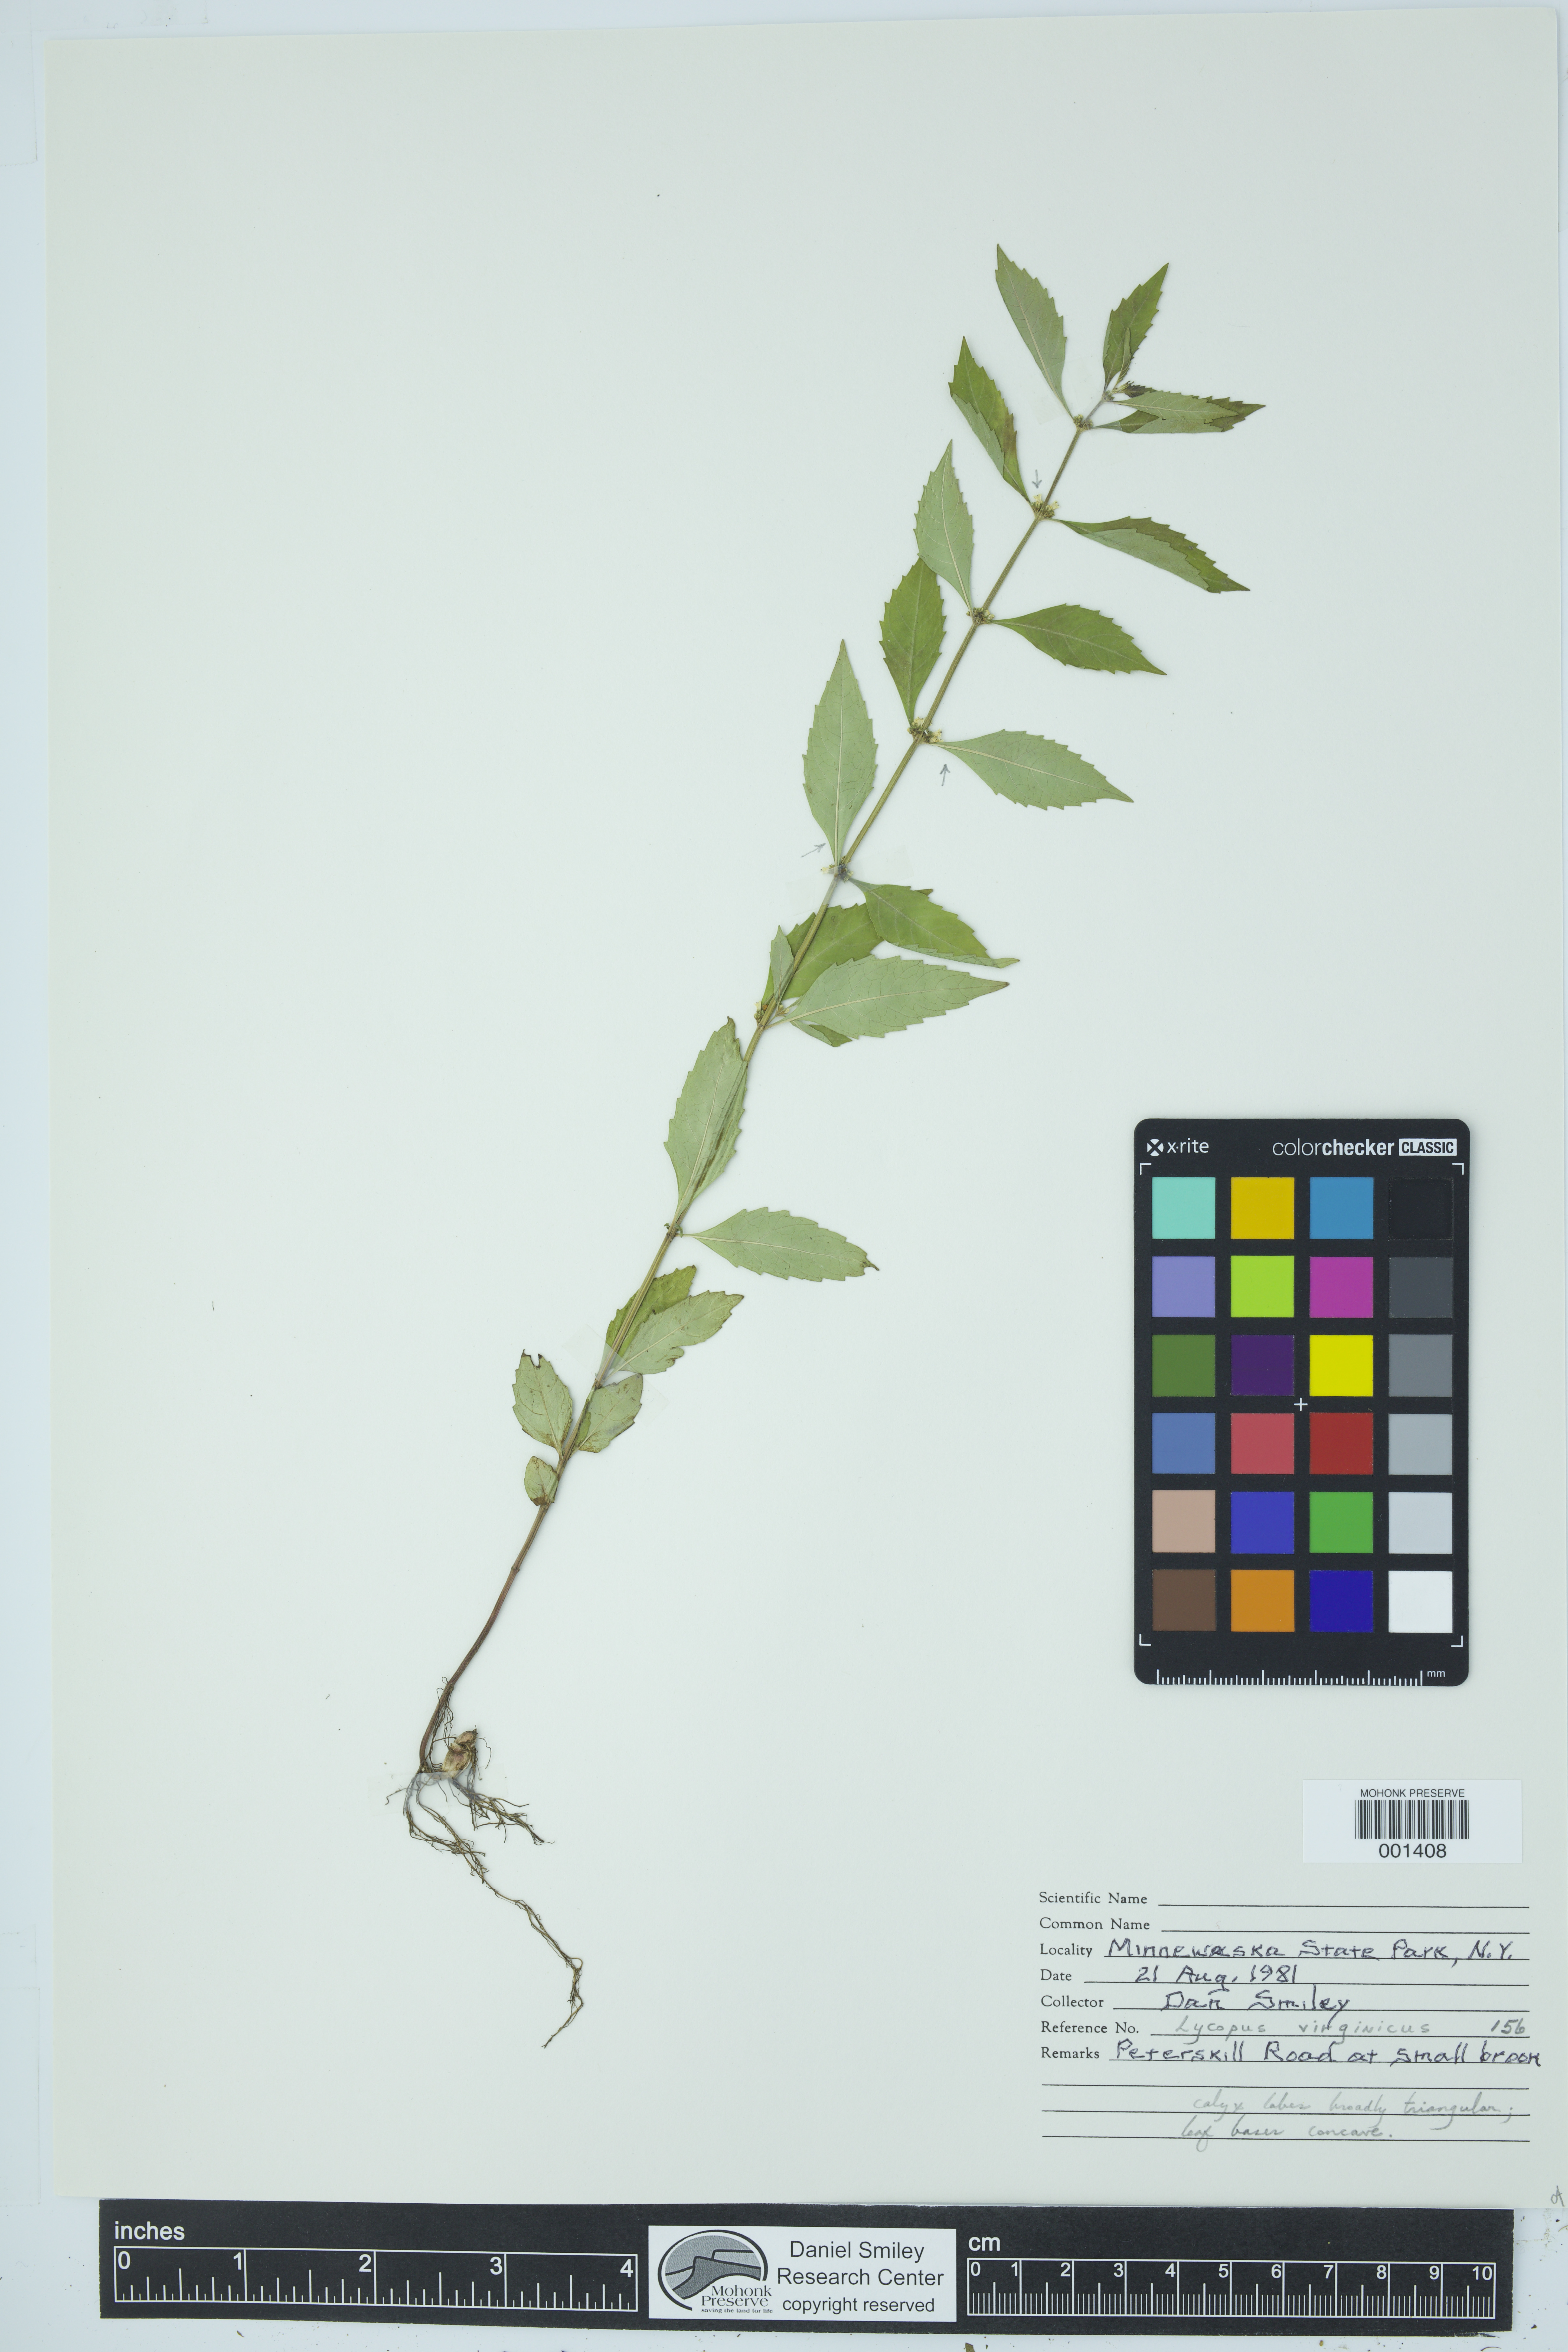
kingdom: Plantae
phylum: Tracheophyta
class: Magnoliopsida
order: Lamiales
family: Lamiaceae
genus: Lycopus
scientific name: Lycopus virginicus
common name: Bugleweed
